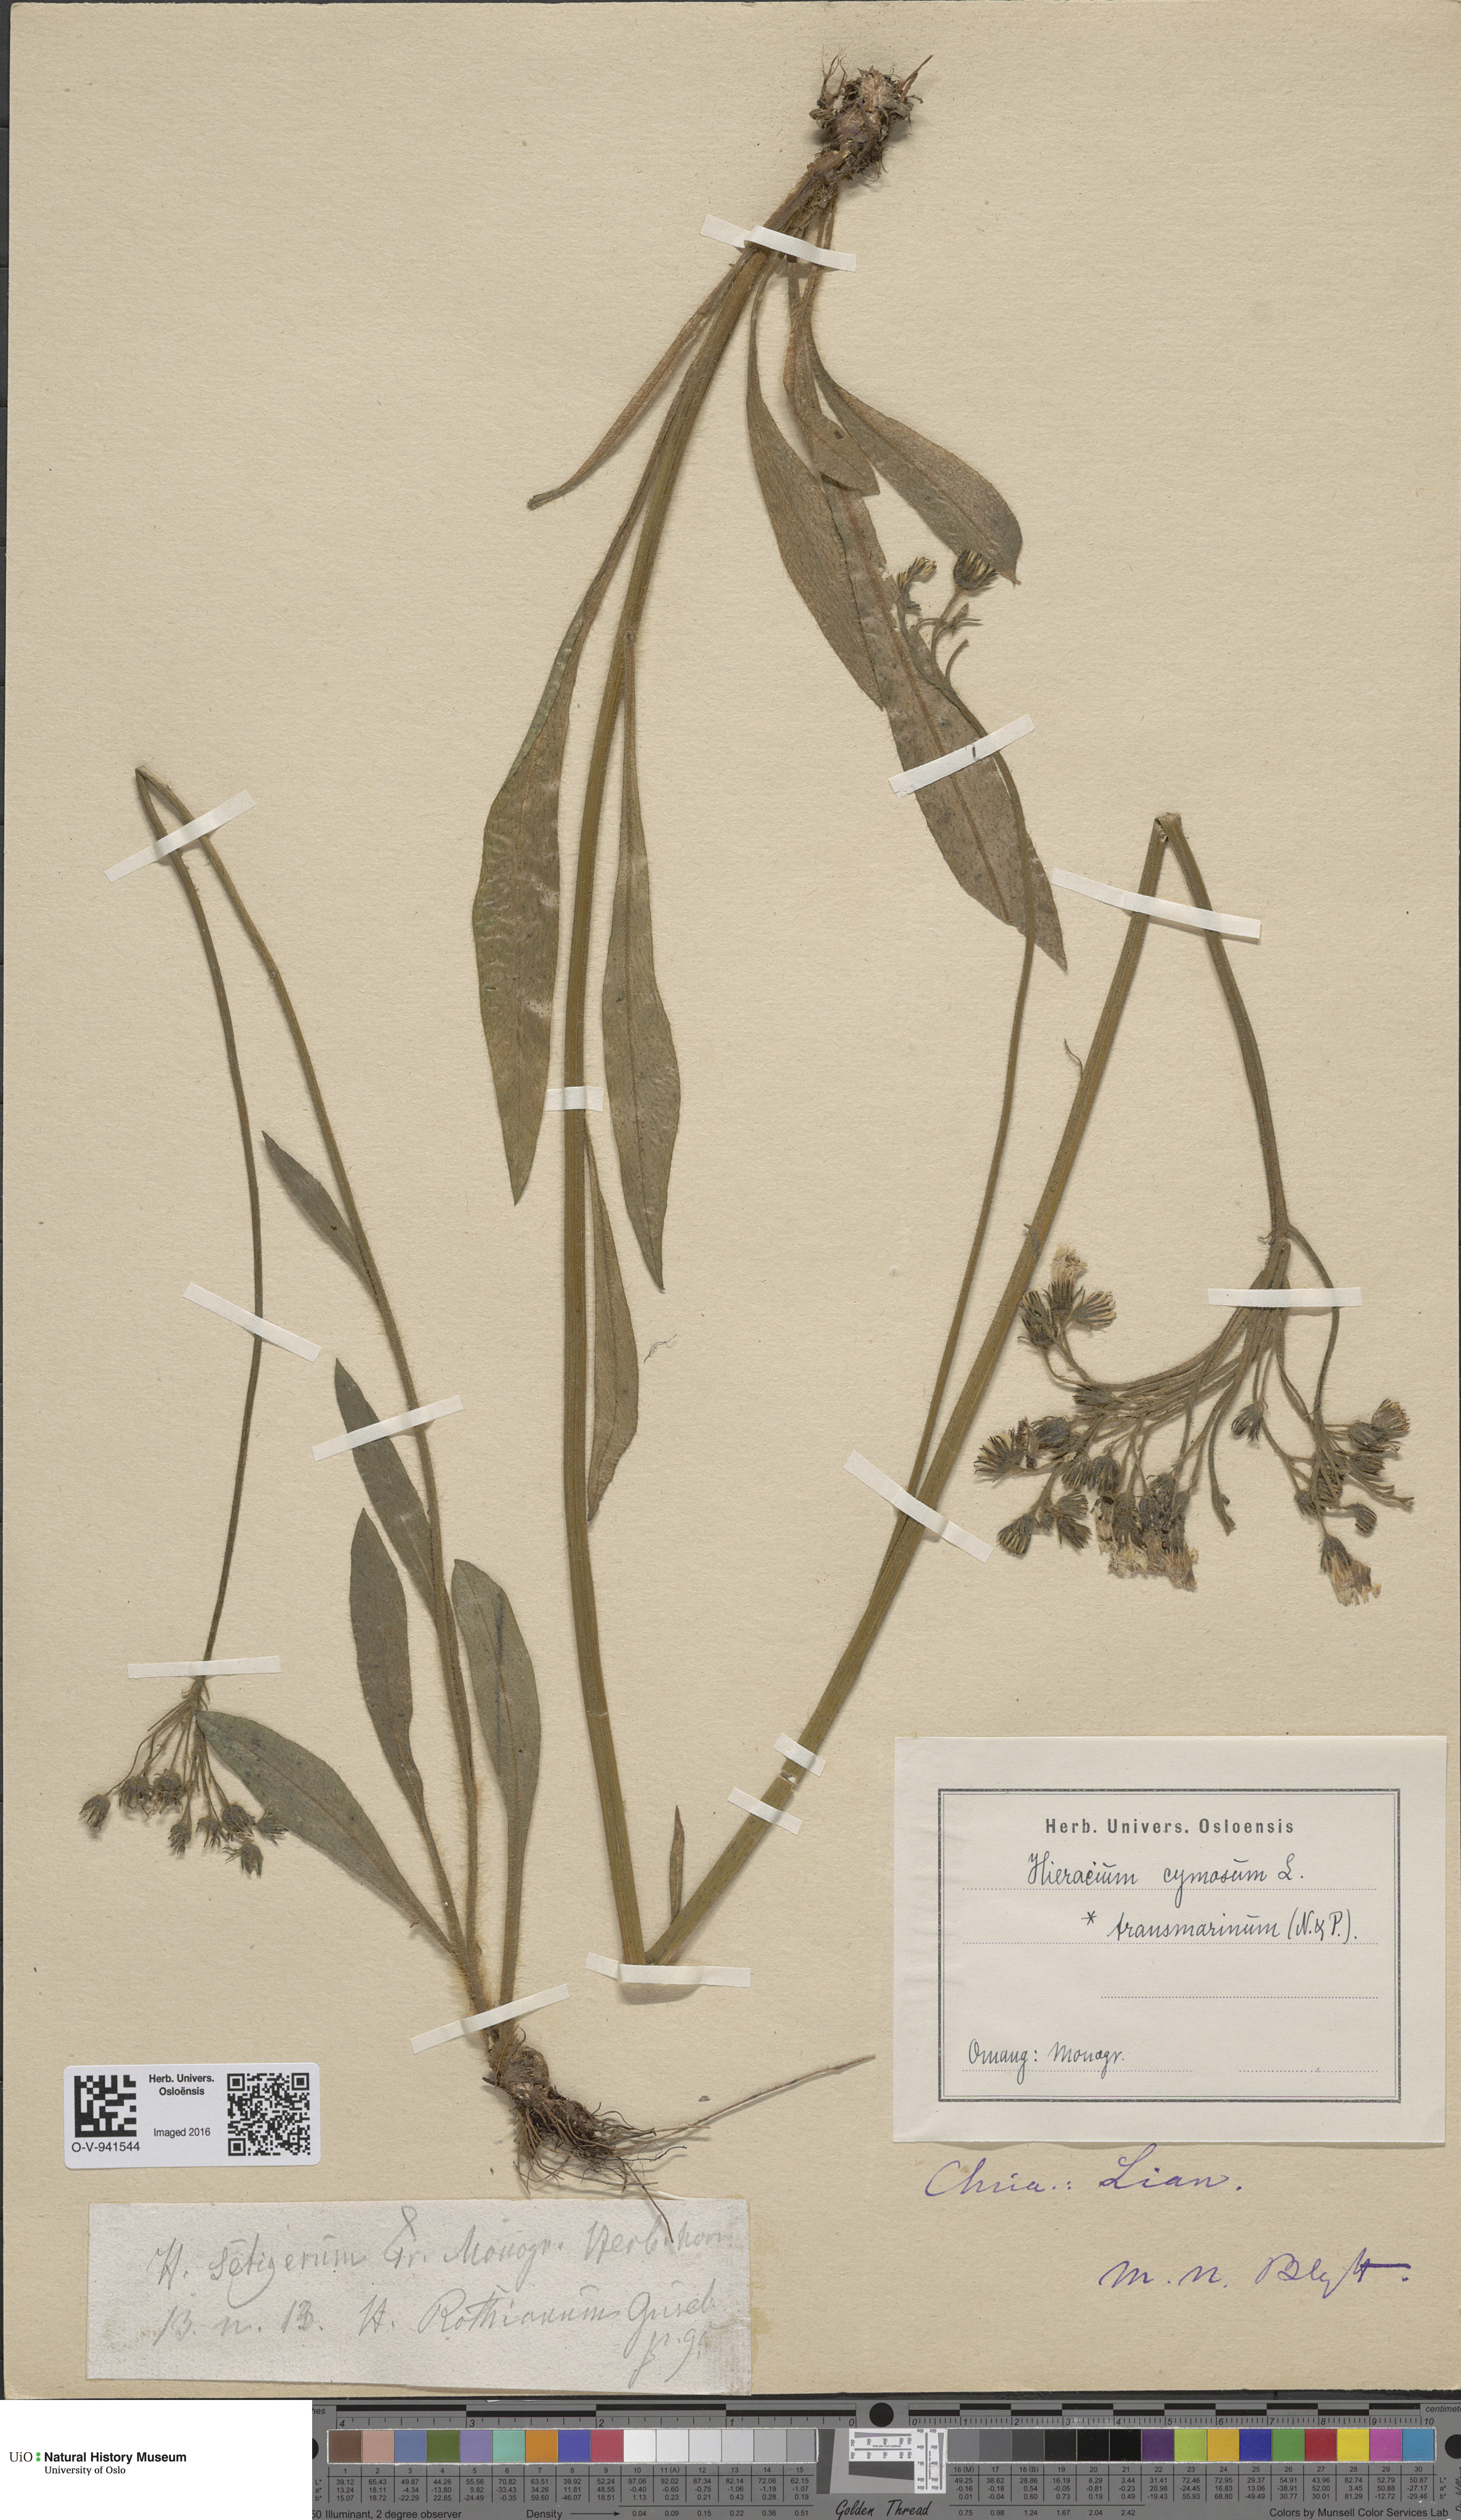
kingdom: Plantae
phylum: Tracheophyta
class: Magnoliopsida
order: Asterales
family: Asteraceae
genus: Pilosella
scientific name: Pilosella cymosa
